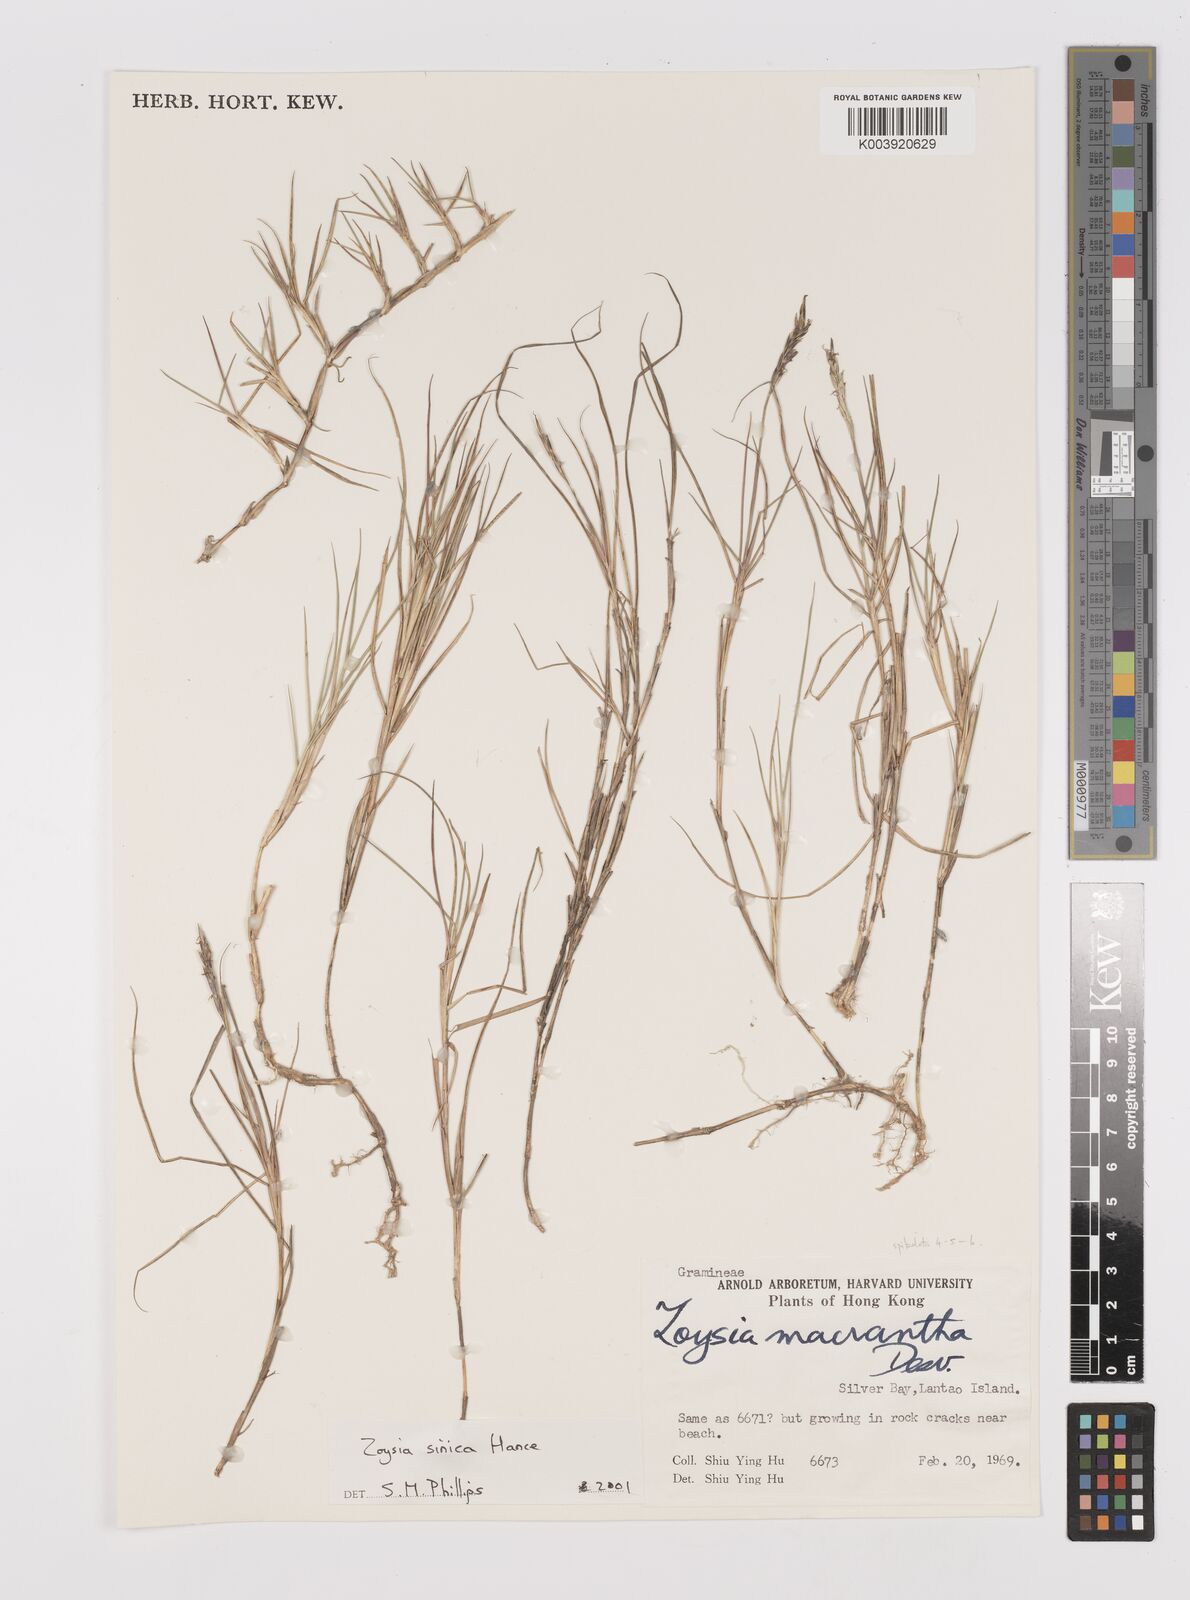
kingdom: Plantae
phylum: Tracheophyta
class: Liliopsida
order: Poales
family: Poaceae
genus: Zoysia
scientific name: Zoysia sinica
